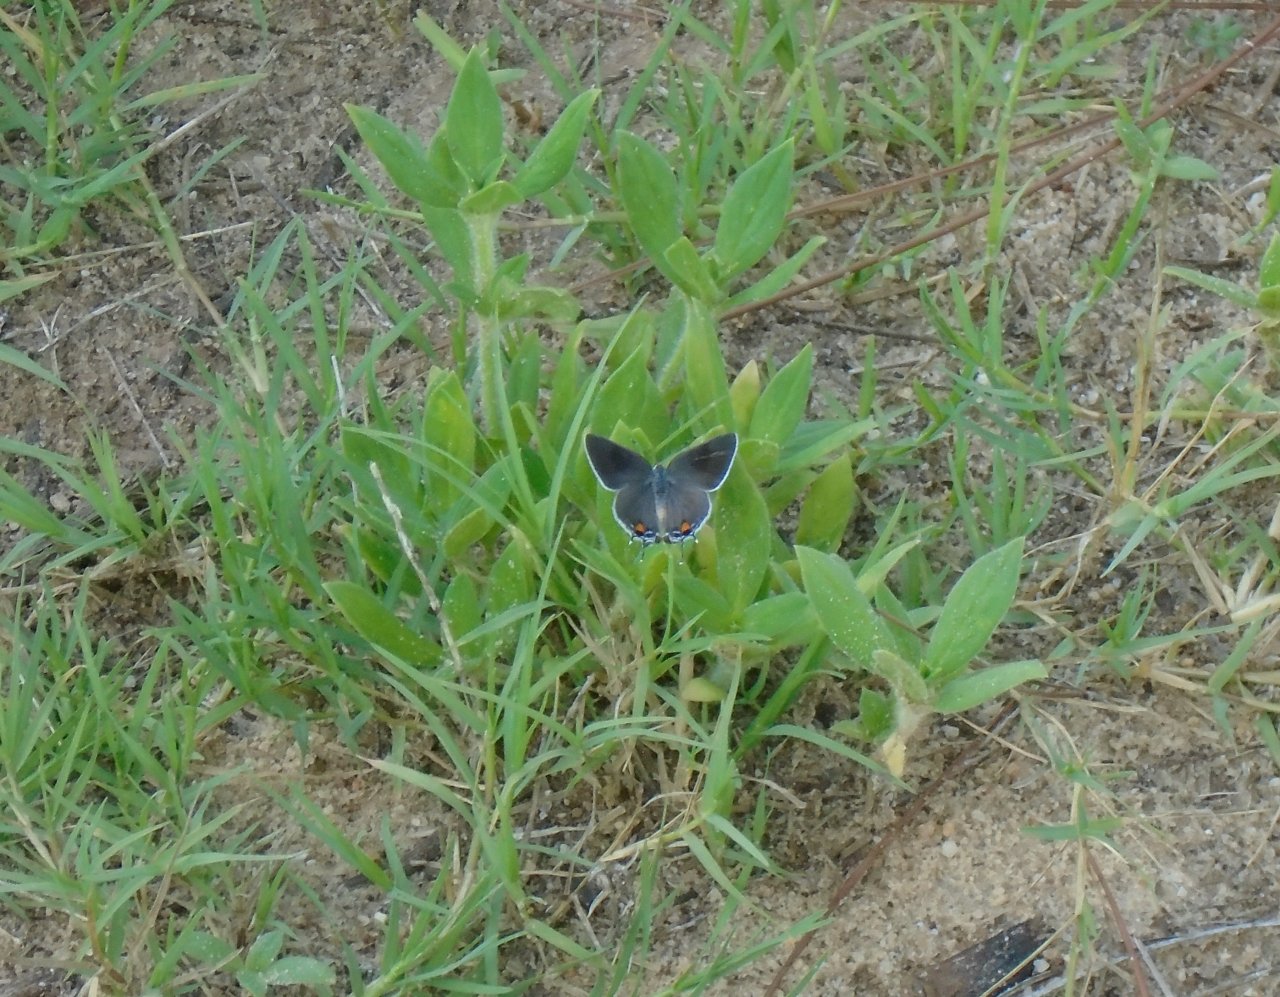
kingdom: Animalia
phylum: Arthropoda
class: Insecta
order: Lepidoptera
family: Lycaenidae
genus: Strymon
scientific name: Strymon melinus
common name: Gray Hairstreak
